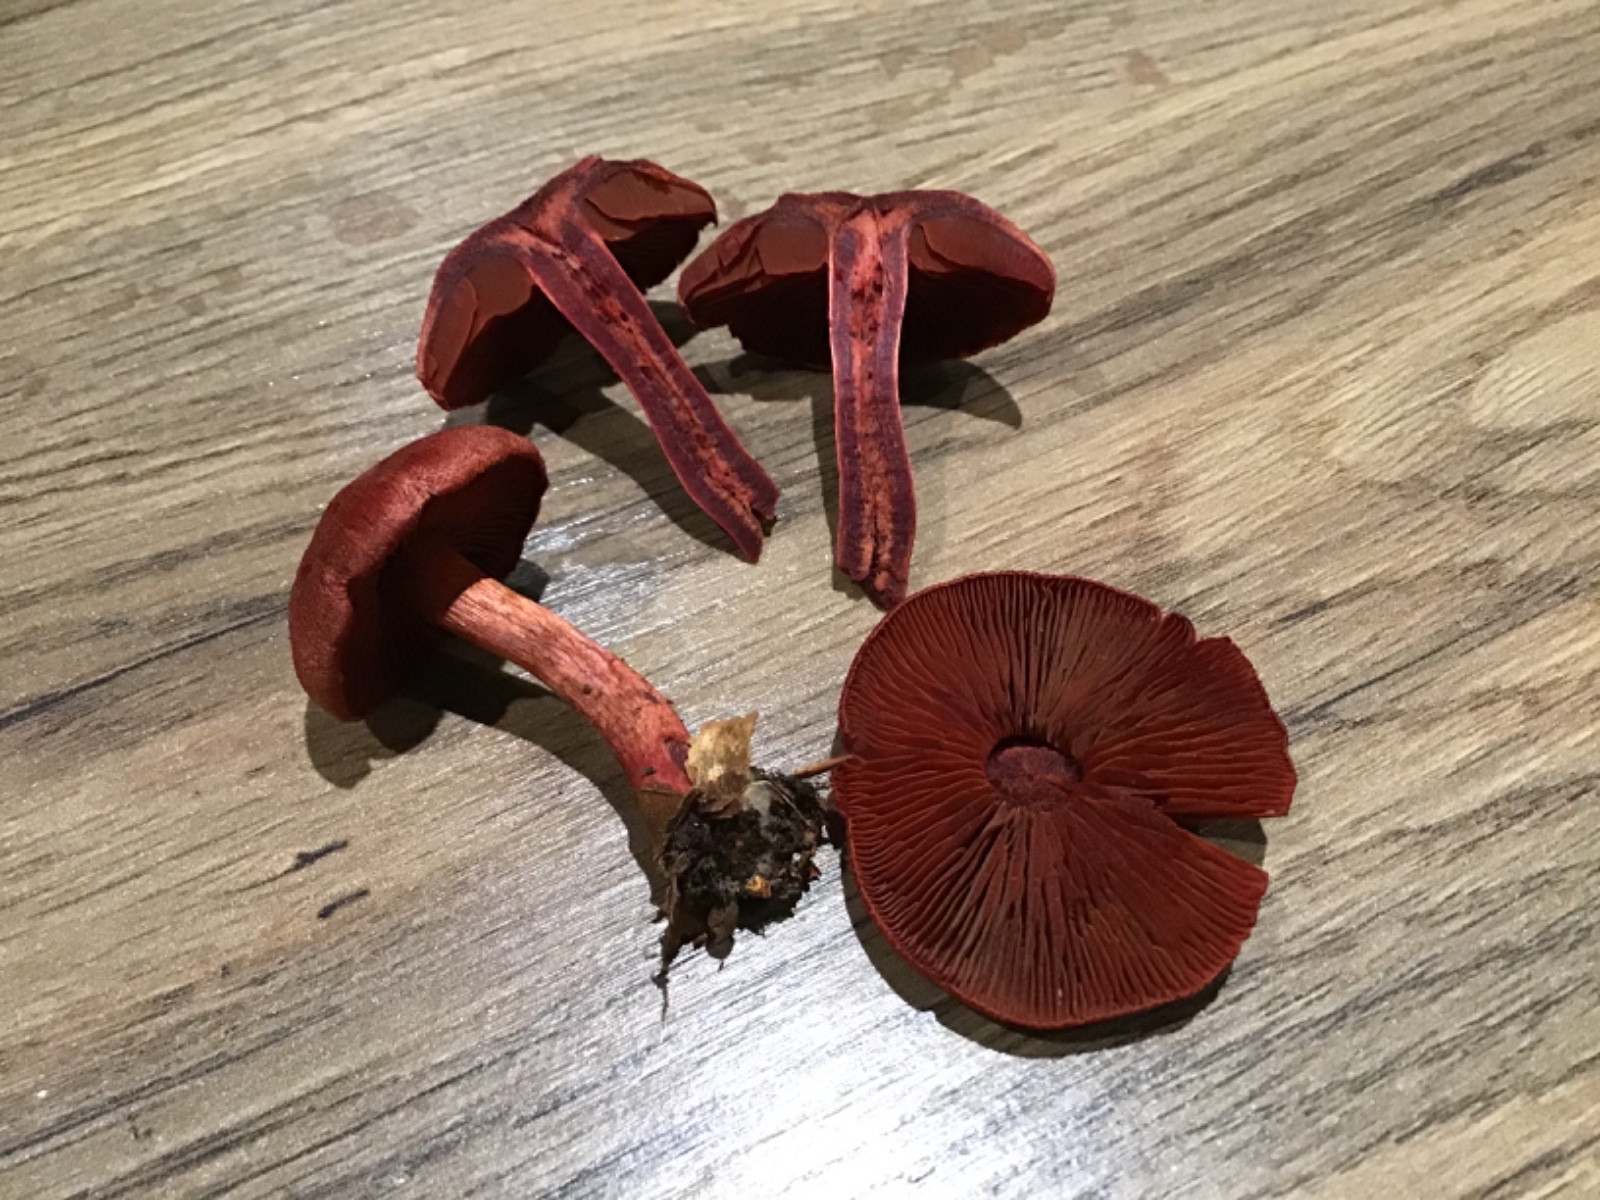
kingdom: Fungi
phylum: Basidiomycota
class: Agaricomycetes
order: Agaricales
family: Cortinariaceae
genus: Cortinarius
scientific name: Cortinarius
